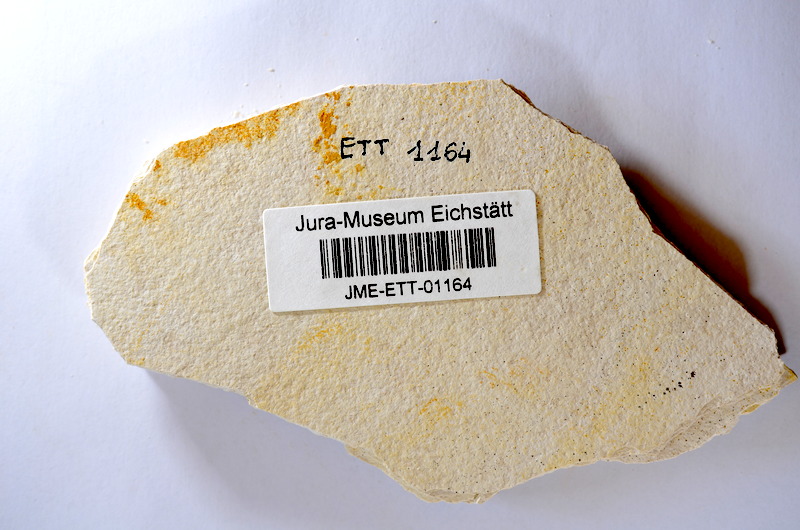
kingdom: Animalia
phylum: Chordata
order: Salmoniformes
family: Orthogonikleithridae
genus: Orthogonikleithrus
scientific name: Orthogonikleithrus hoelli
